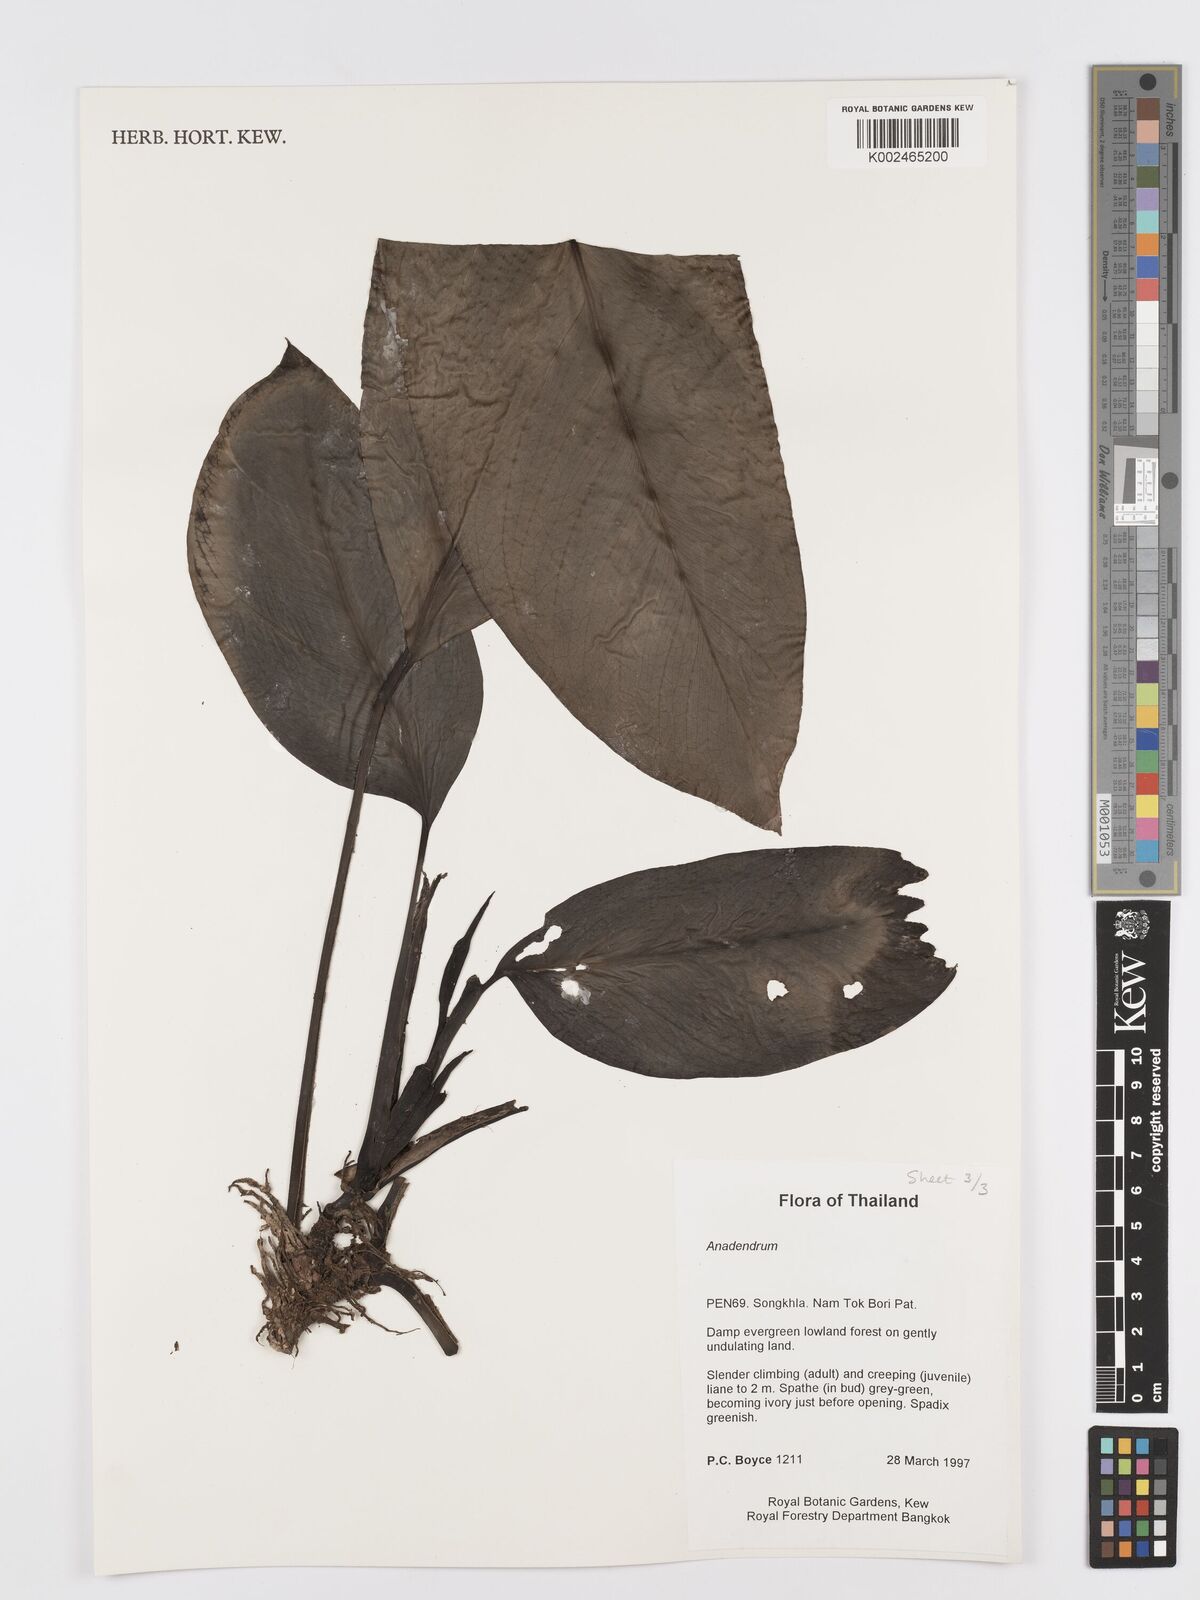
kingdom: Plantae
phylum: Tracheophyta
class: Liliopsida
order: Alismatales
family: Araceae
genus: Anadendrum
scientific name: Anadendrum
